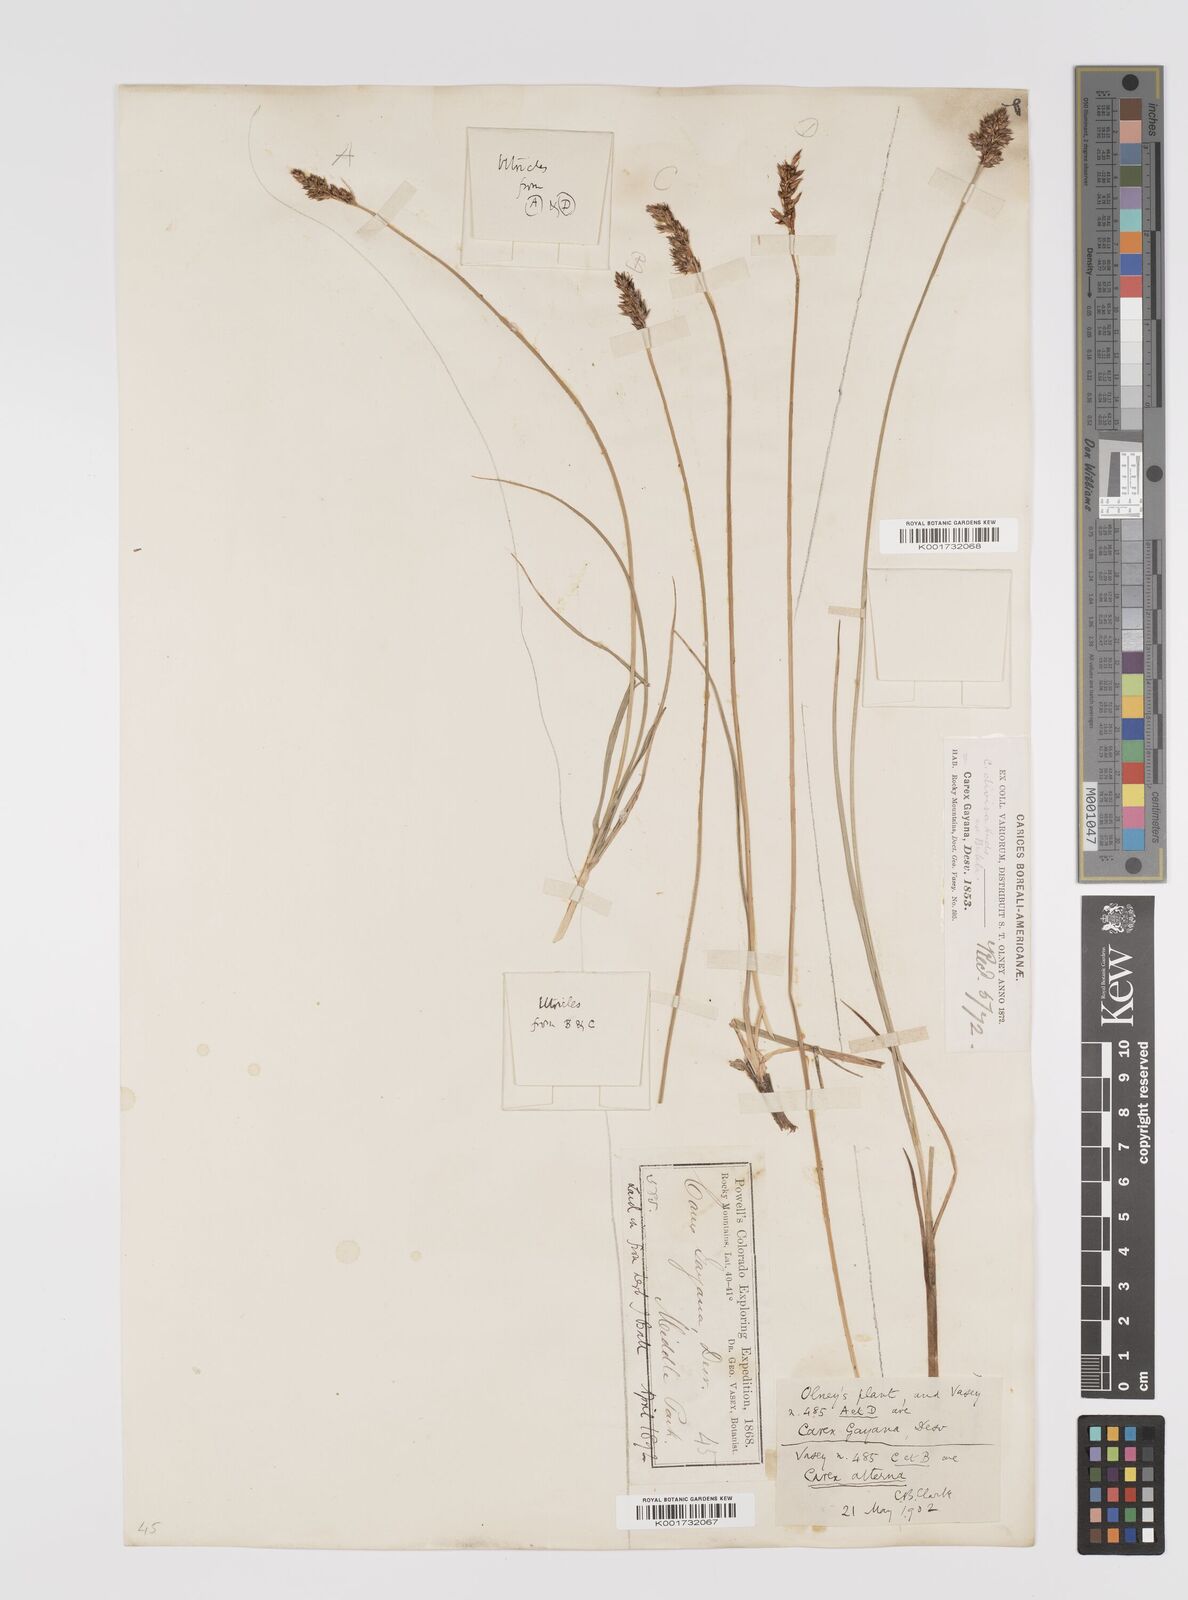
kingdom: Plantae
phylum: Tracheophyta
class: Liliopsida
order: Poales
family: Cyperaceae
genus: Carex
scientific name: Carex praegracilis
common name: Black creeper sedge
